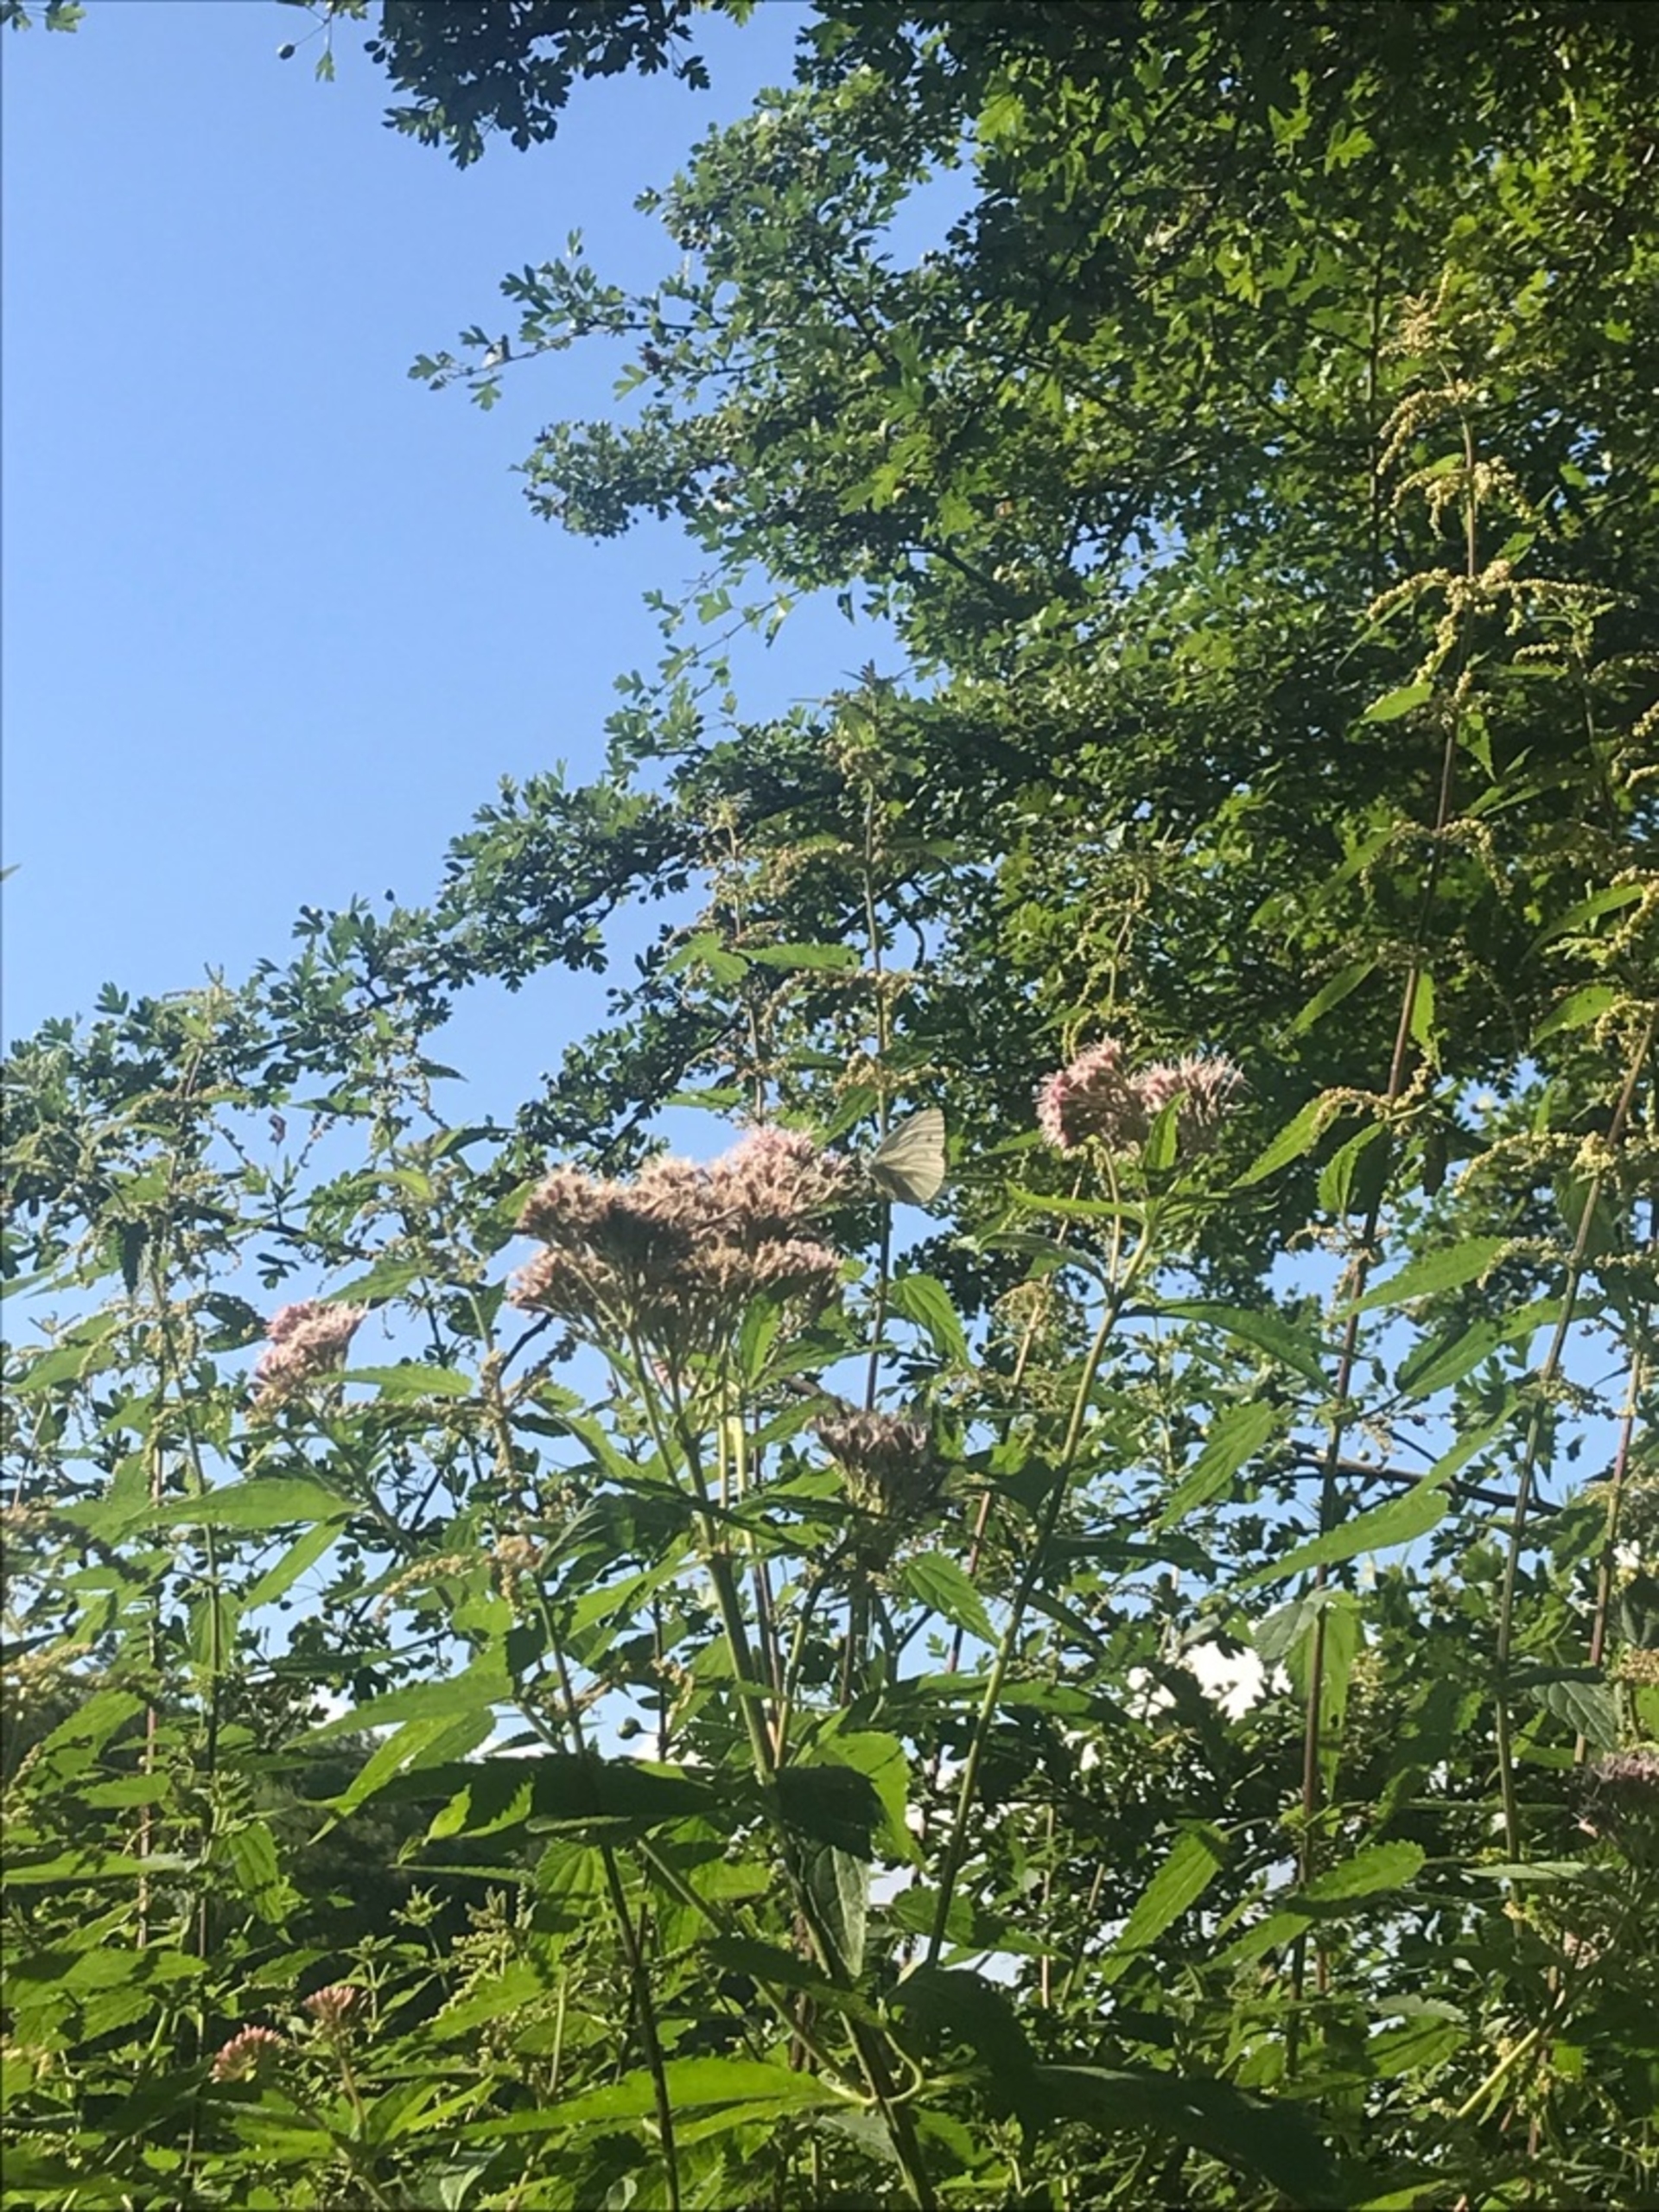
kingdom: Animalia
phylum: Arthropoda
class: Insecta
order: Lepidoptera
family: Pieridae
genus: Pieris
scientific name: Pieris napi
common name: Grønåret kålsommerfugl
